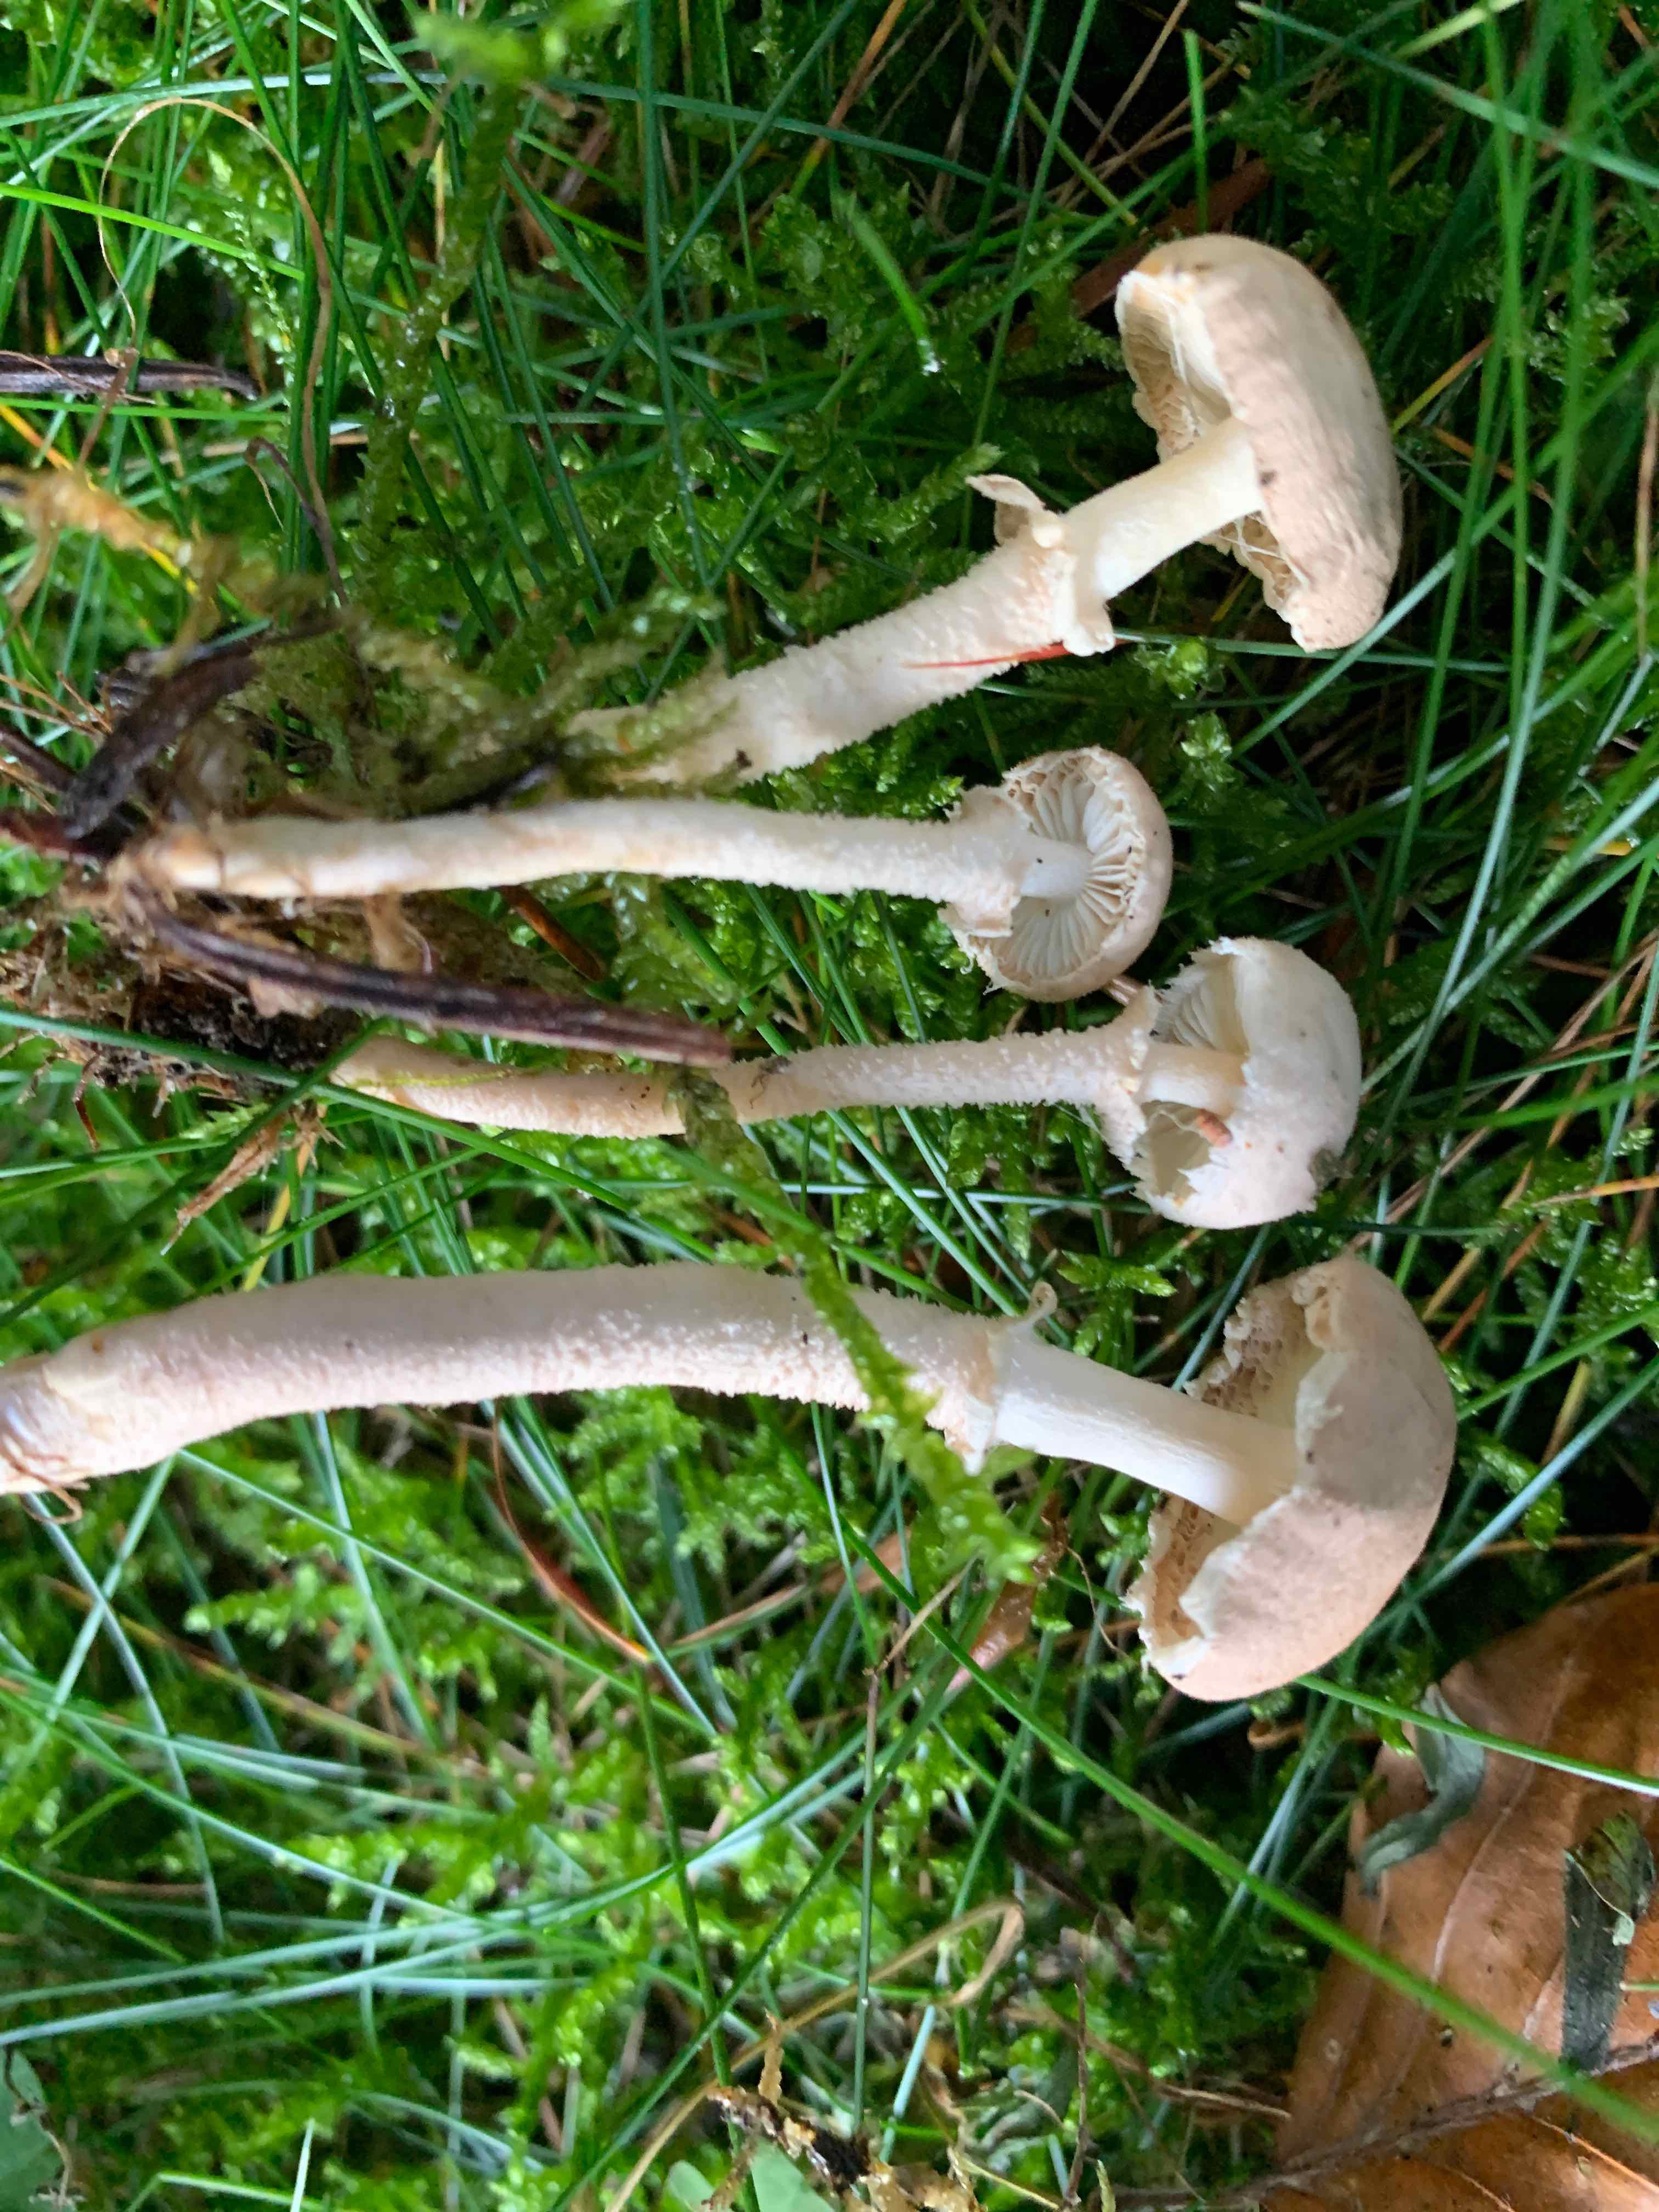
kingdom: Fungi
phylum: Basidiomycota
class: Agaricomycetes
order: Agaricales
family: Tricholomataceae
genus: Cystoderma
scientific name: Cystoderma carcharias
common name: rødgrå grynhat
